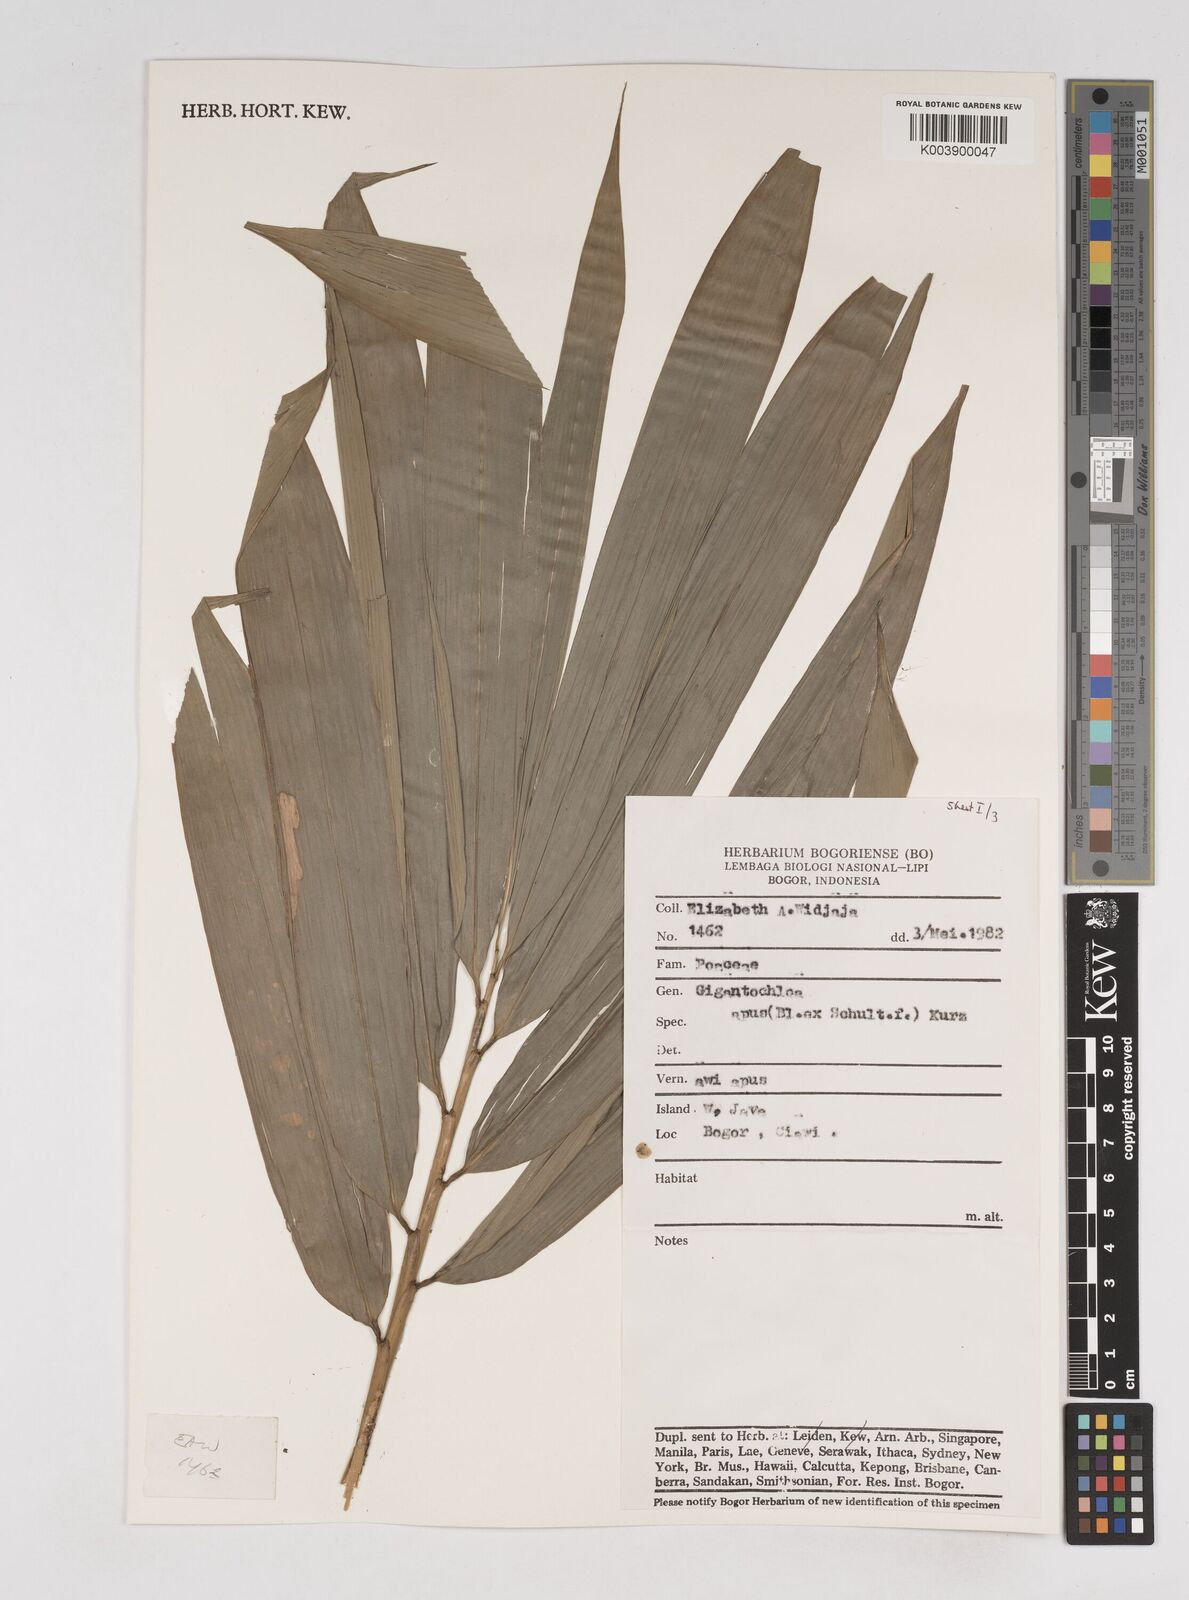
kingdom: Plantae
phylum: Tracheophyta
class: Liliopsida
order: Poales
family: Poaceae
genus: Gigantochloa
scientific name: Gigantochloa apus
